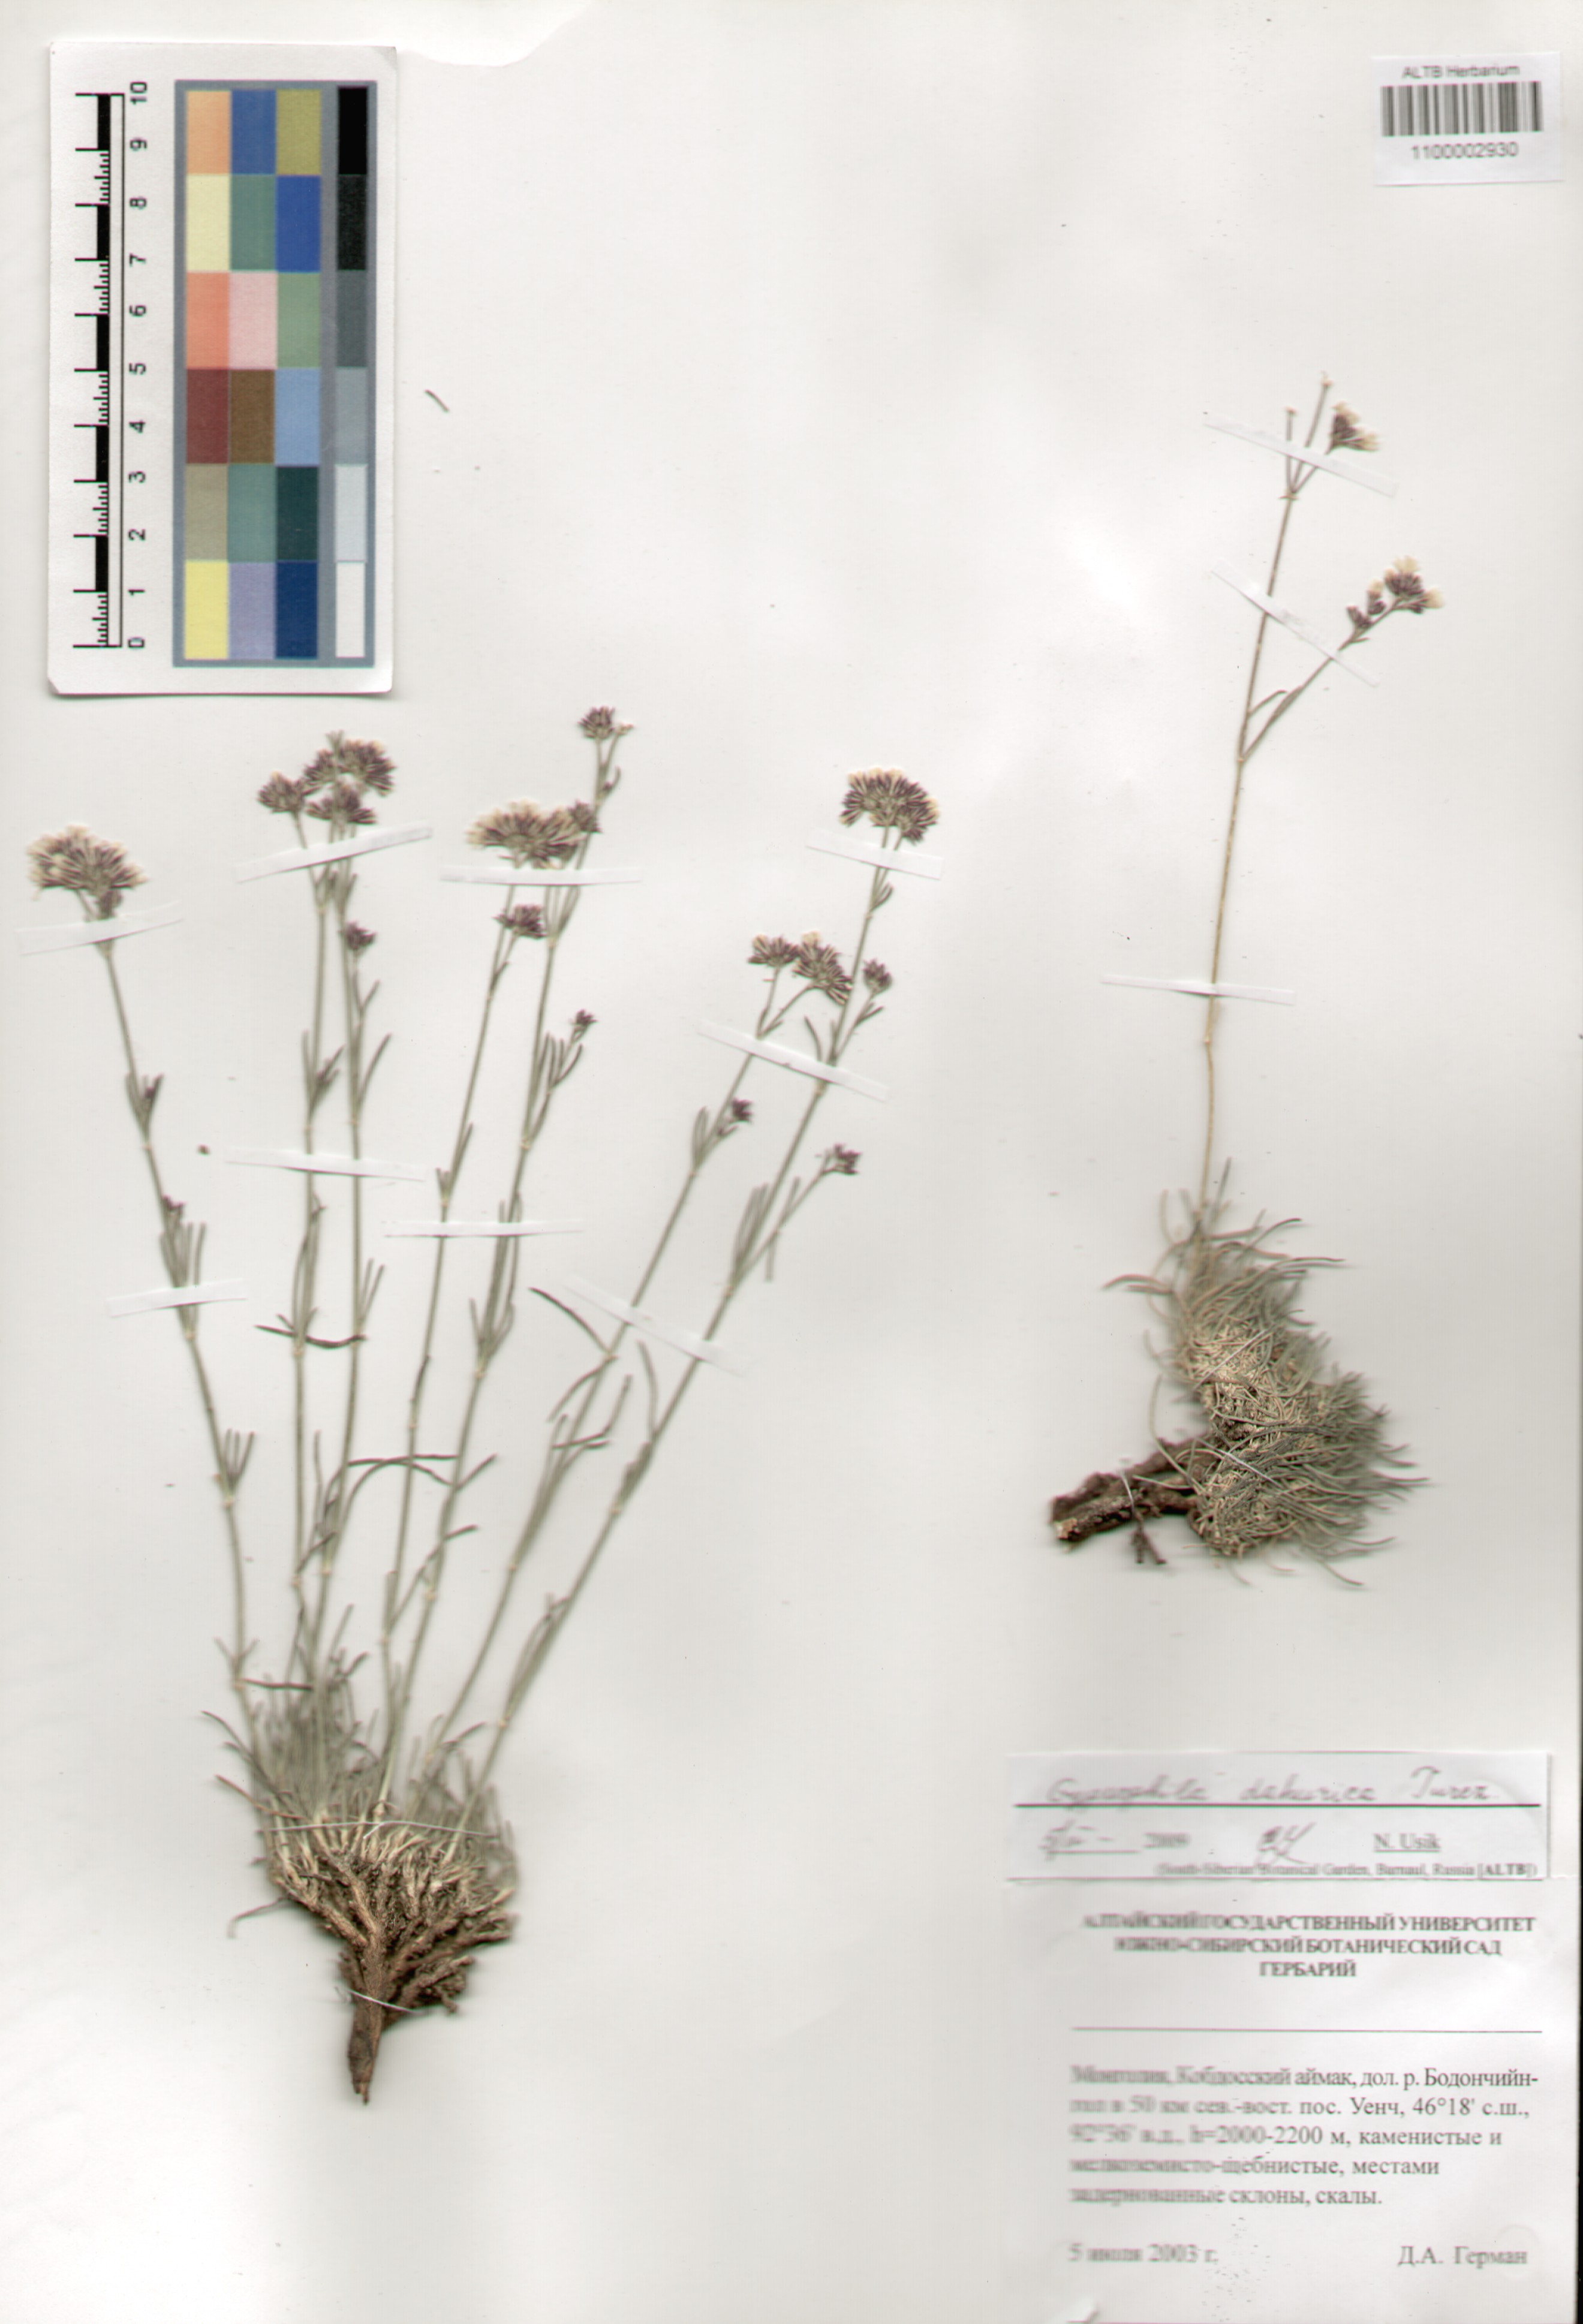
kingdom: Plantae
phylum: Tracheophyta
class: Magnoliopsida
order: Caryophyllales
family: Caryophyllaceae
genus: Gypsophila
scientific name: Gypsophila fastigiata
